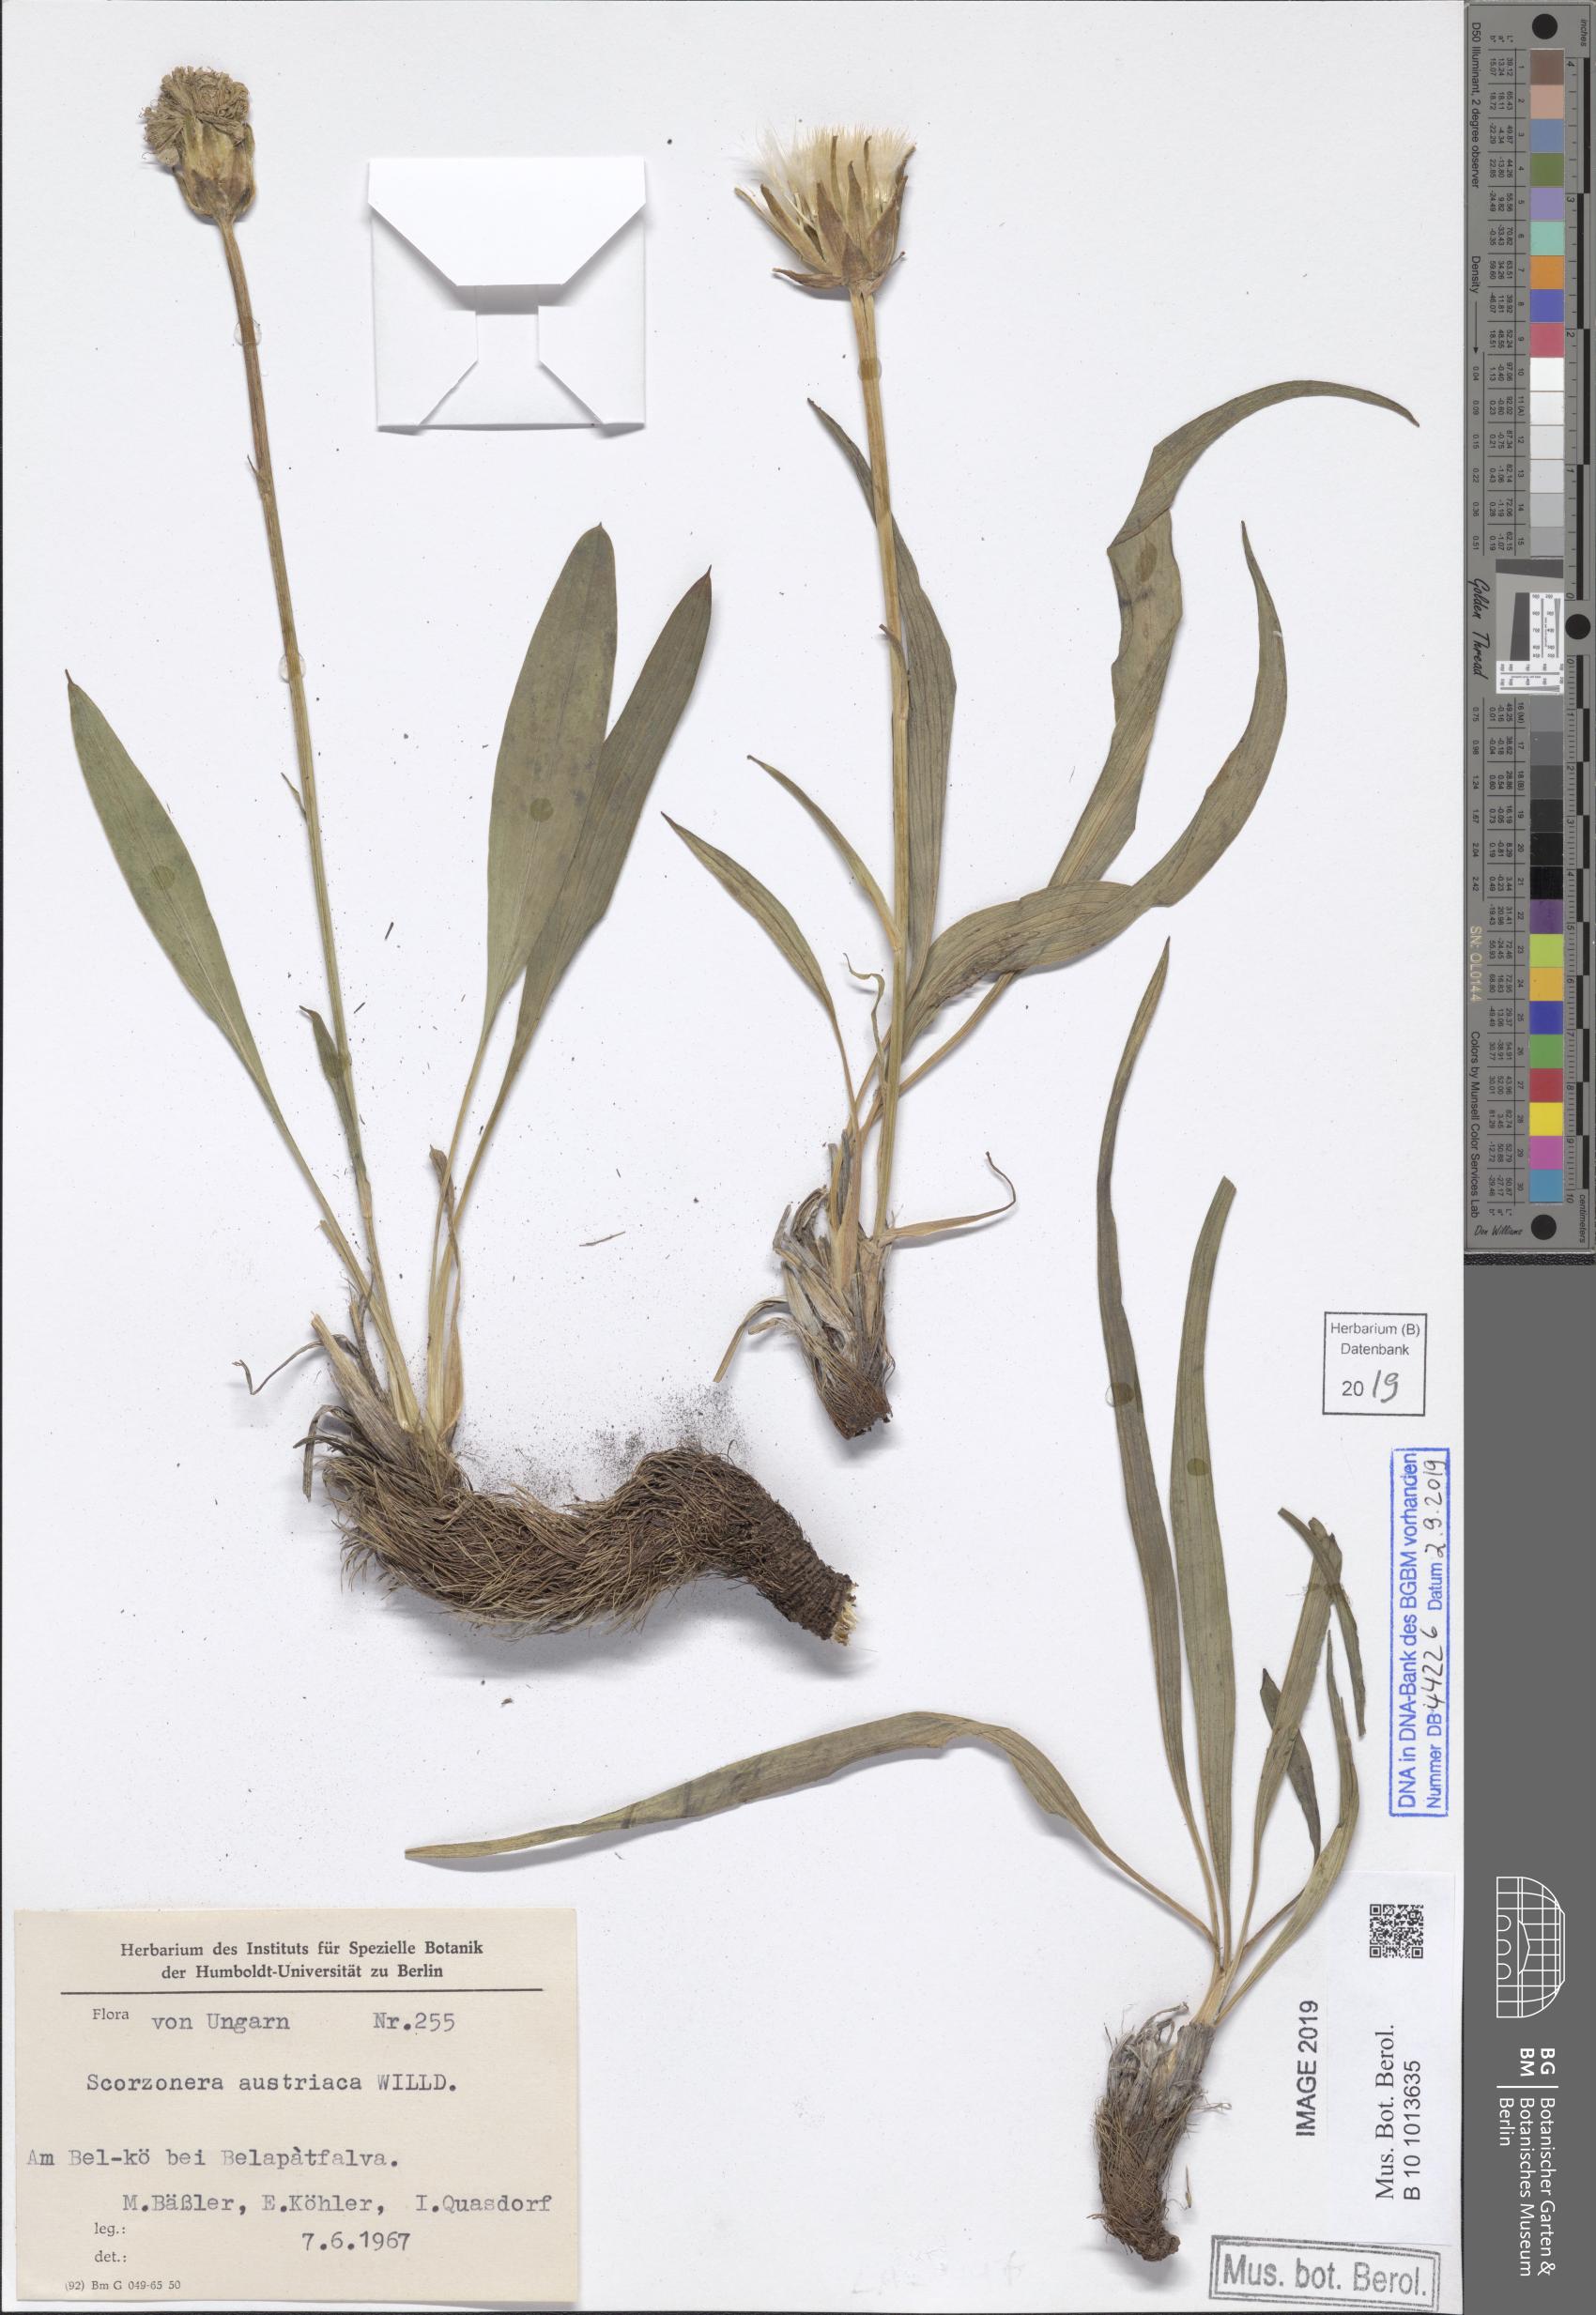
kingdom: Plantae
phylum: Tracheophyta
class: Magnoliopsida
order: Asterales
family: Asteraceae
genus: Takhtajaniantha
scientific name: Takhtajaniantha austriaca
